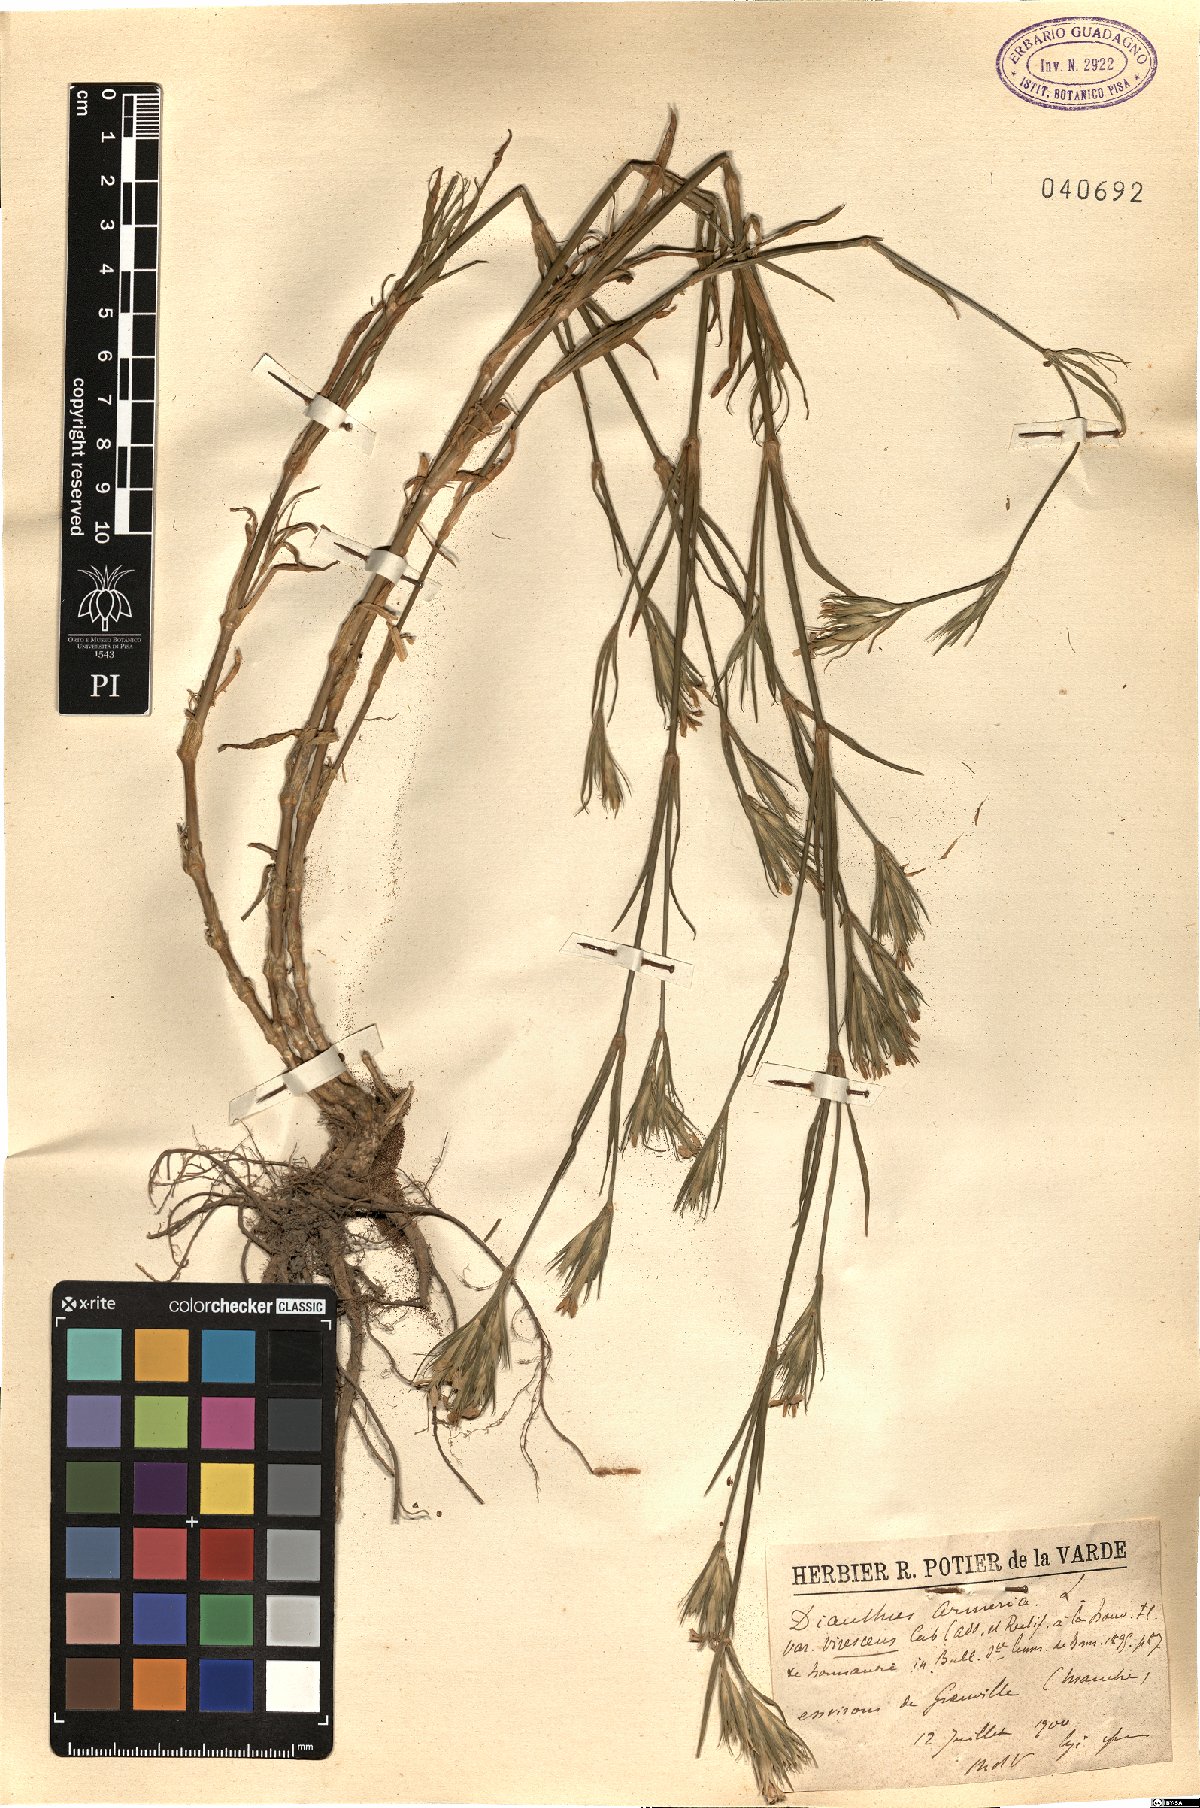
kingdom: Plantae
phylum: Tracheophyta
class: Magnoliopsida
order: Caryophyllales
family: Caryophyllaceae
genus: Dianthus
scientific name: Dianthus armeria
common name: Deptford pink
